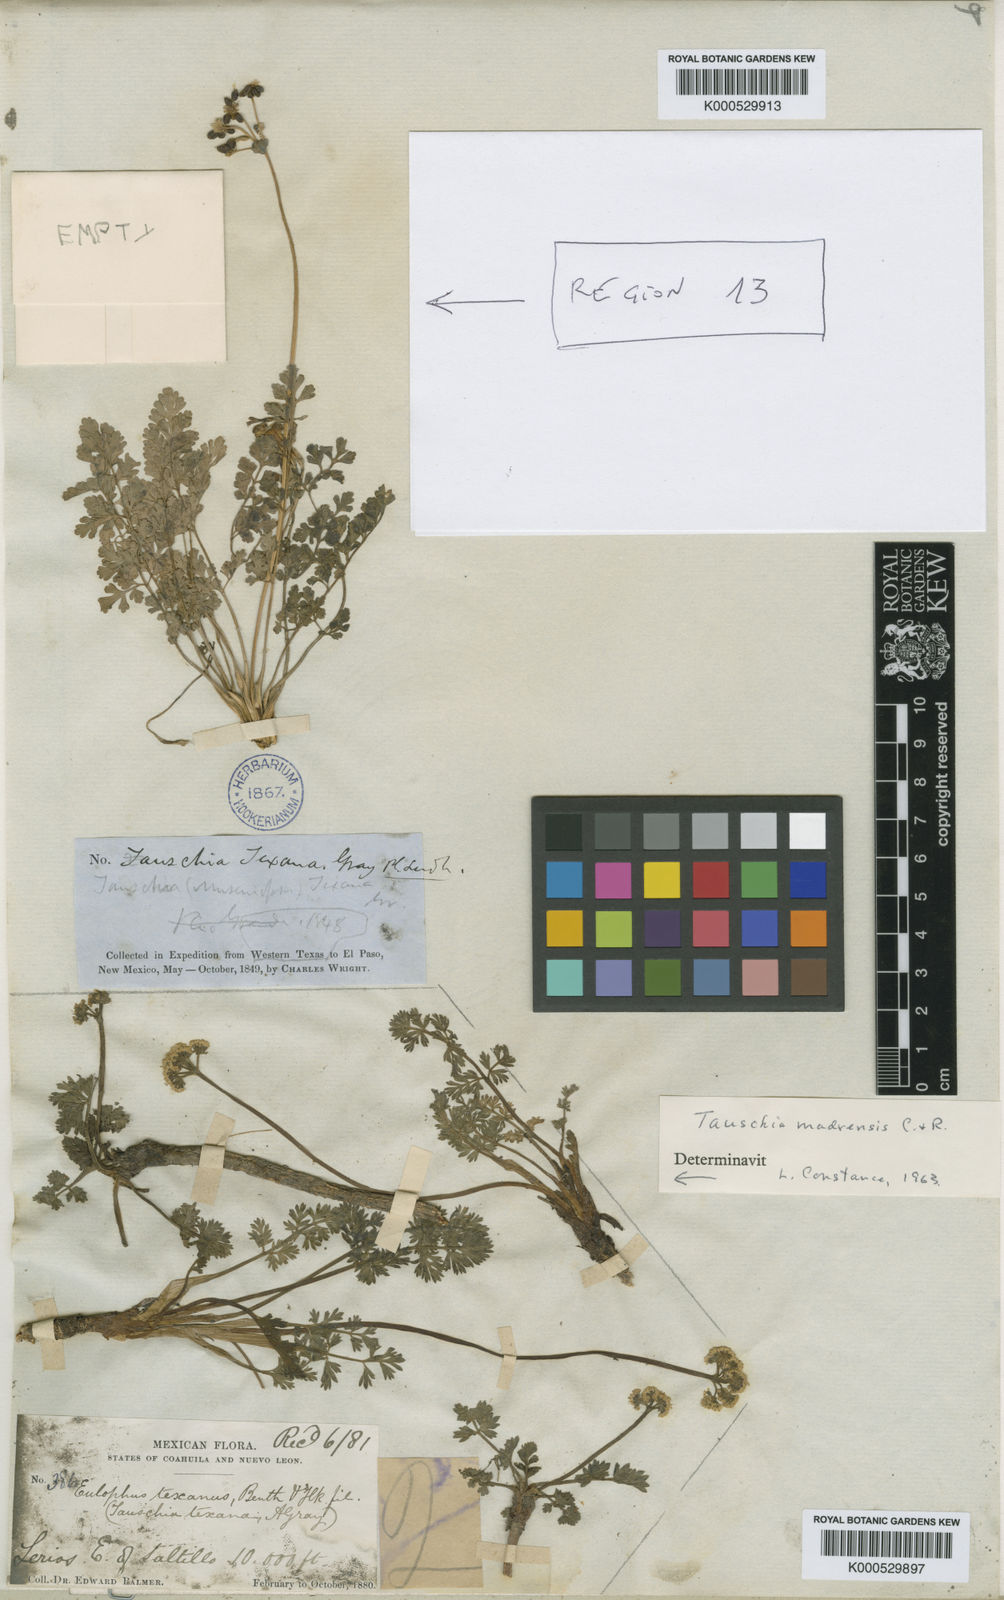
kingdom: Plantae
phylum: Tracheophyta
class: Magnoliopsida
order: Apiales
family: Apiaceae
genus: Tauschia
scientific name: Tauschia madrensis
